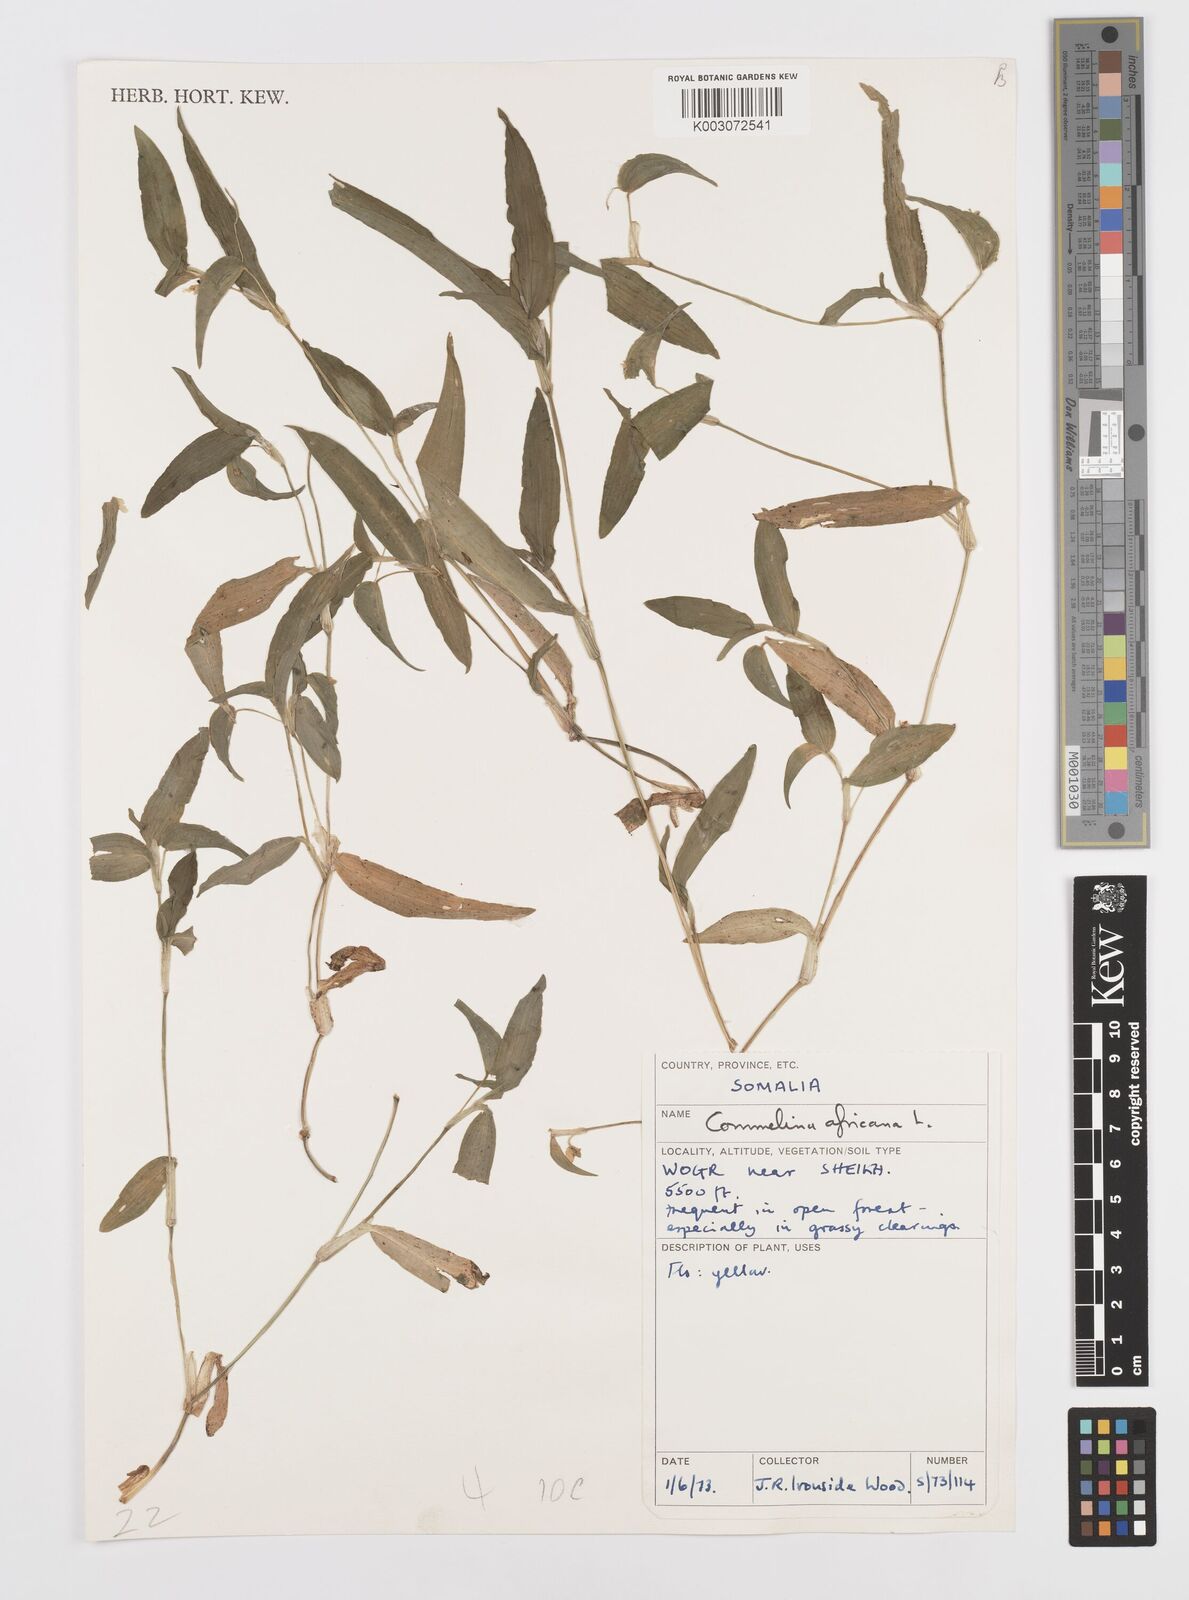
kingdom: Plantae
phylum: Tracheophyta
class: Liliopsida
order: Commelinales
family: Commelinaceae
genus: Commelina
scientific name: Commelina africana
